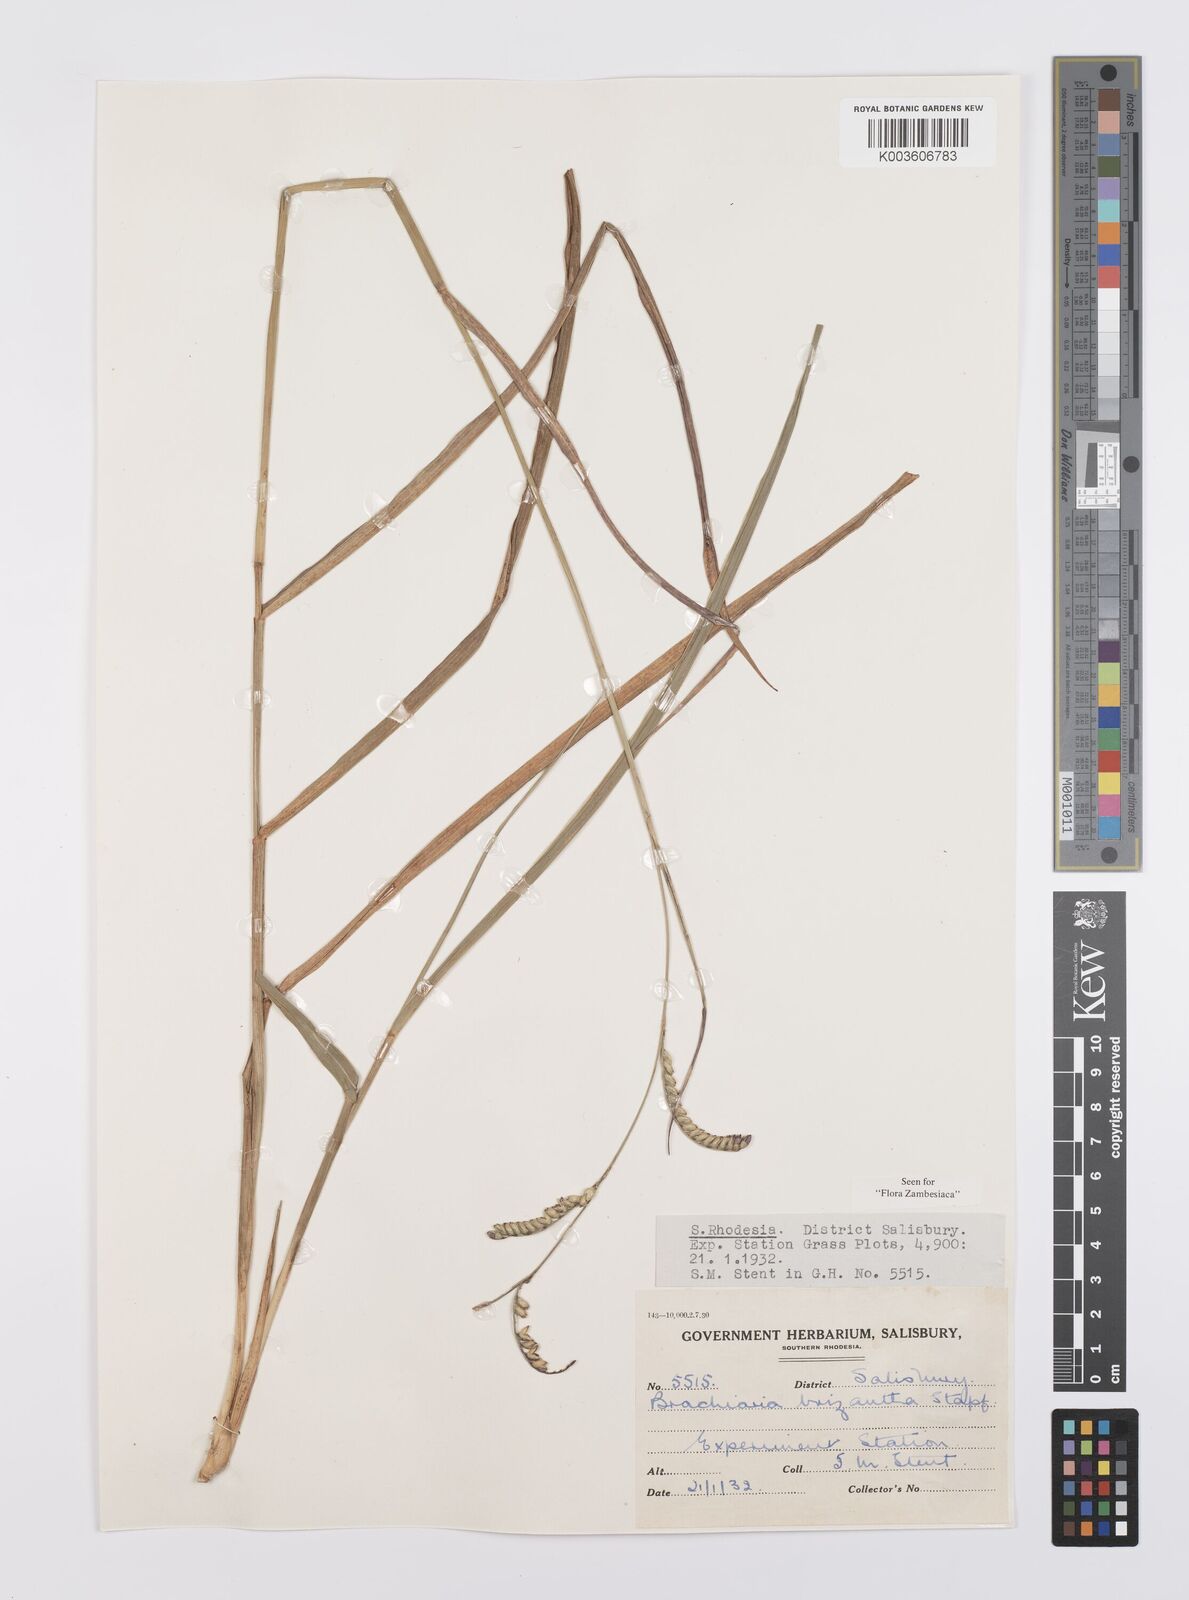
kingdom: Plantae
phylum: Tracheophyta
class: Liliopsida
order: Poales
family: Poaceae
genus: Urochloa
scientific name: Urochloa brizantha
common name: Palisade signalgrass
